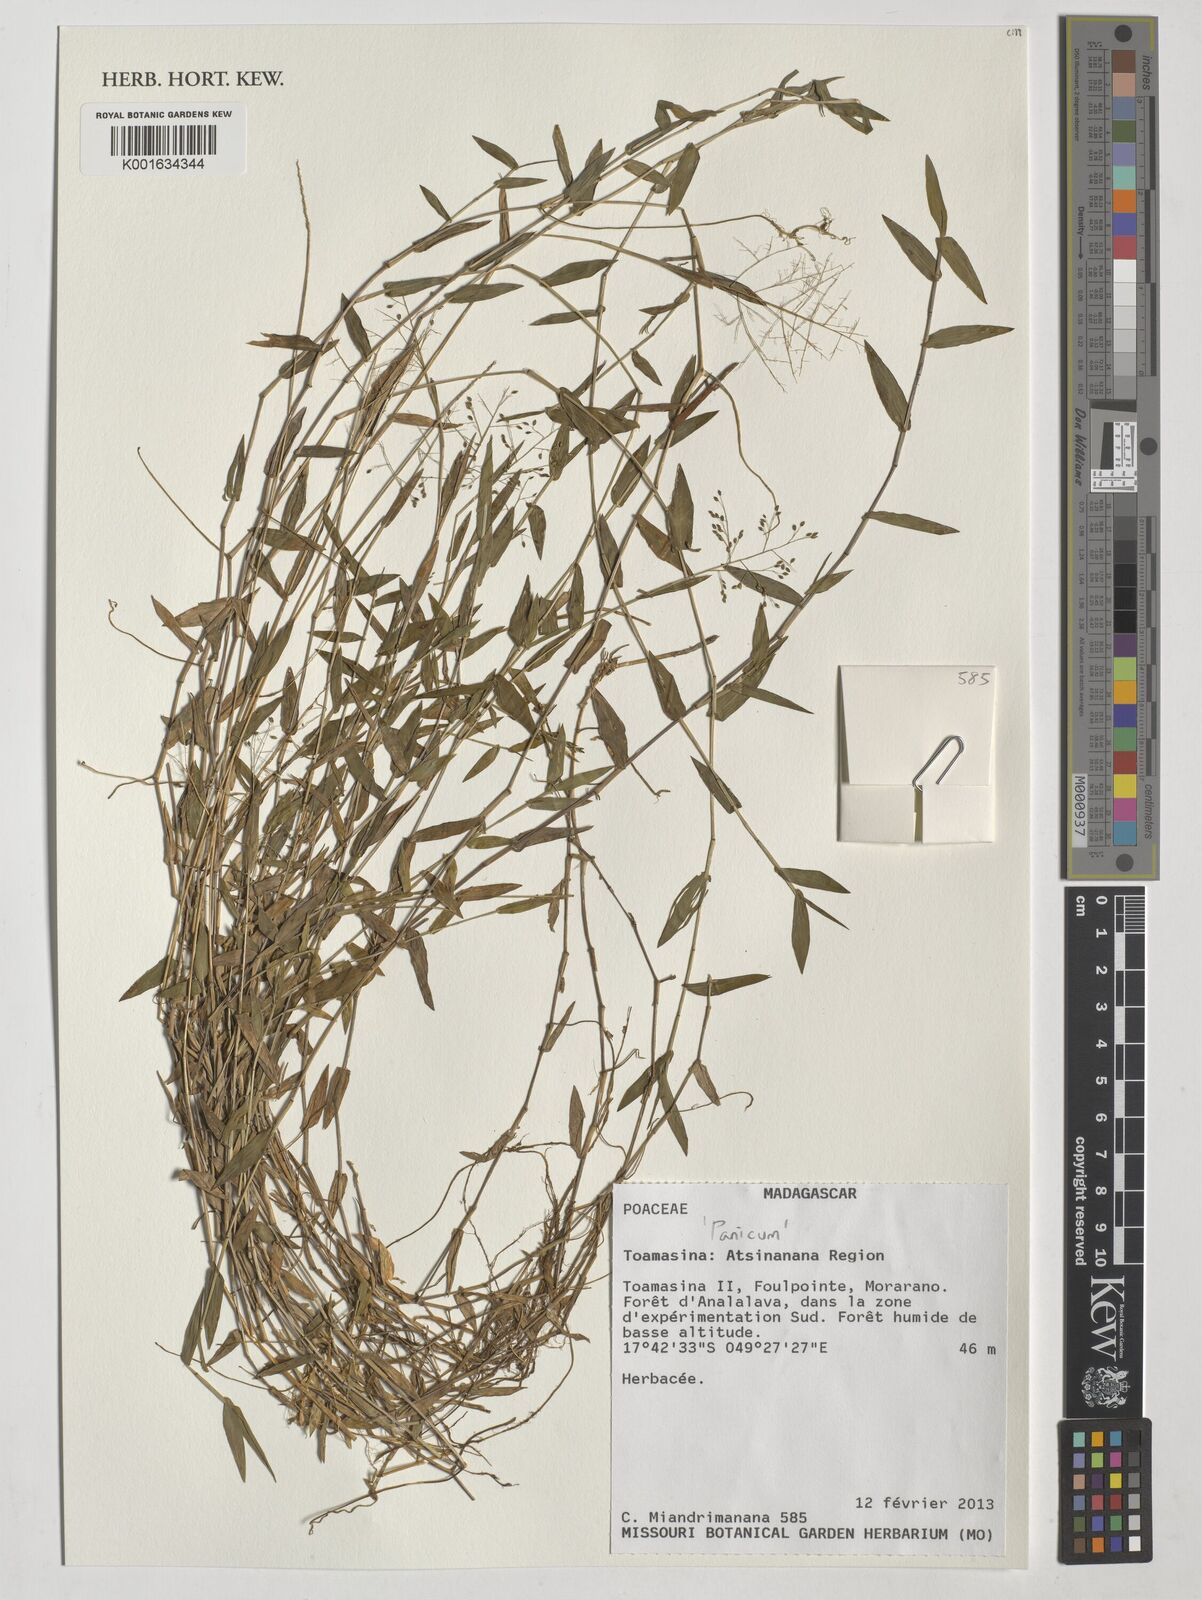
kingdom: Plantae
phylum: Tracheophyta
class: Liliopsida
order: Poales
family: Poaceae
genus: Panicum
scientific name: Panicum
